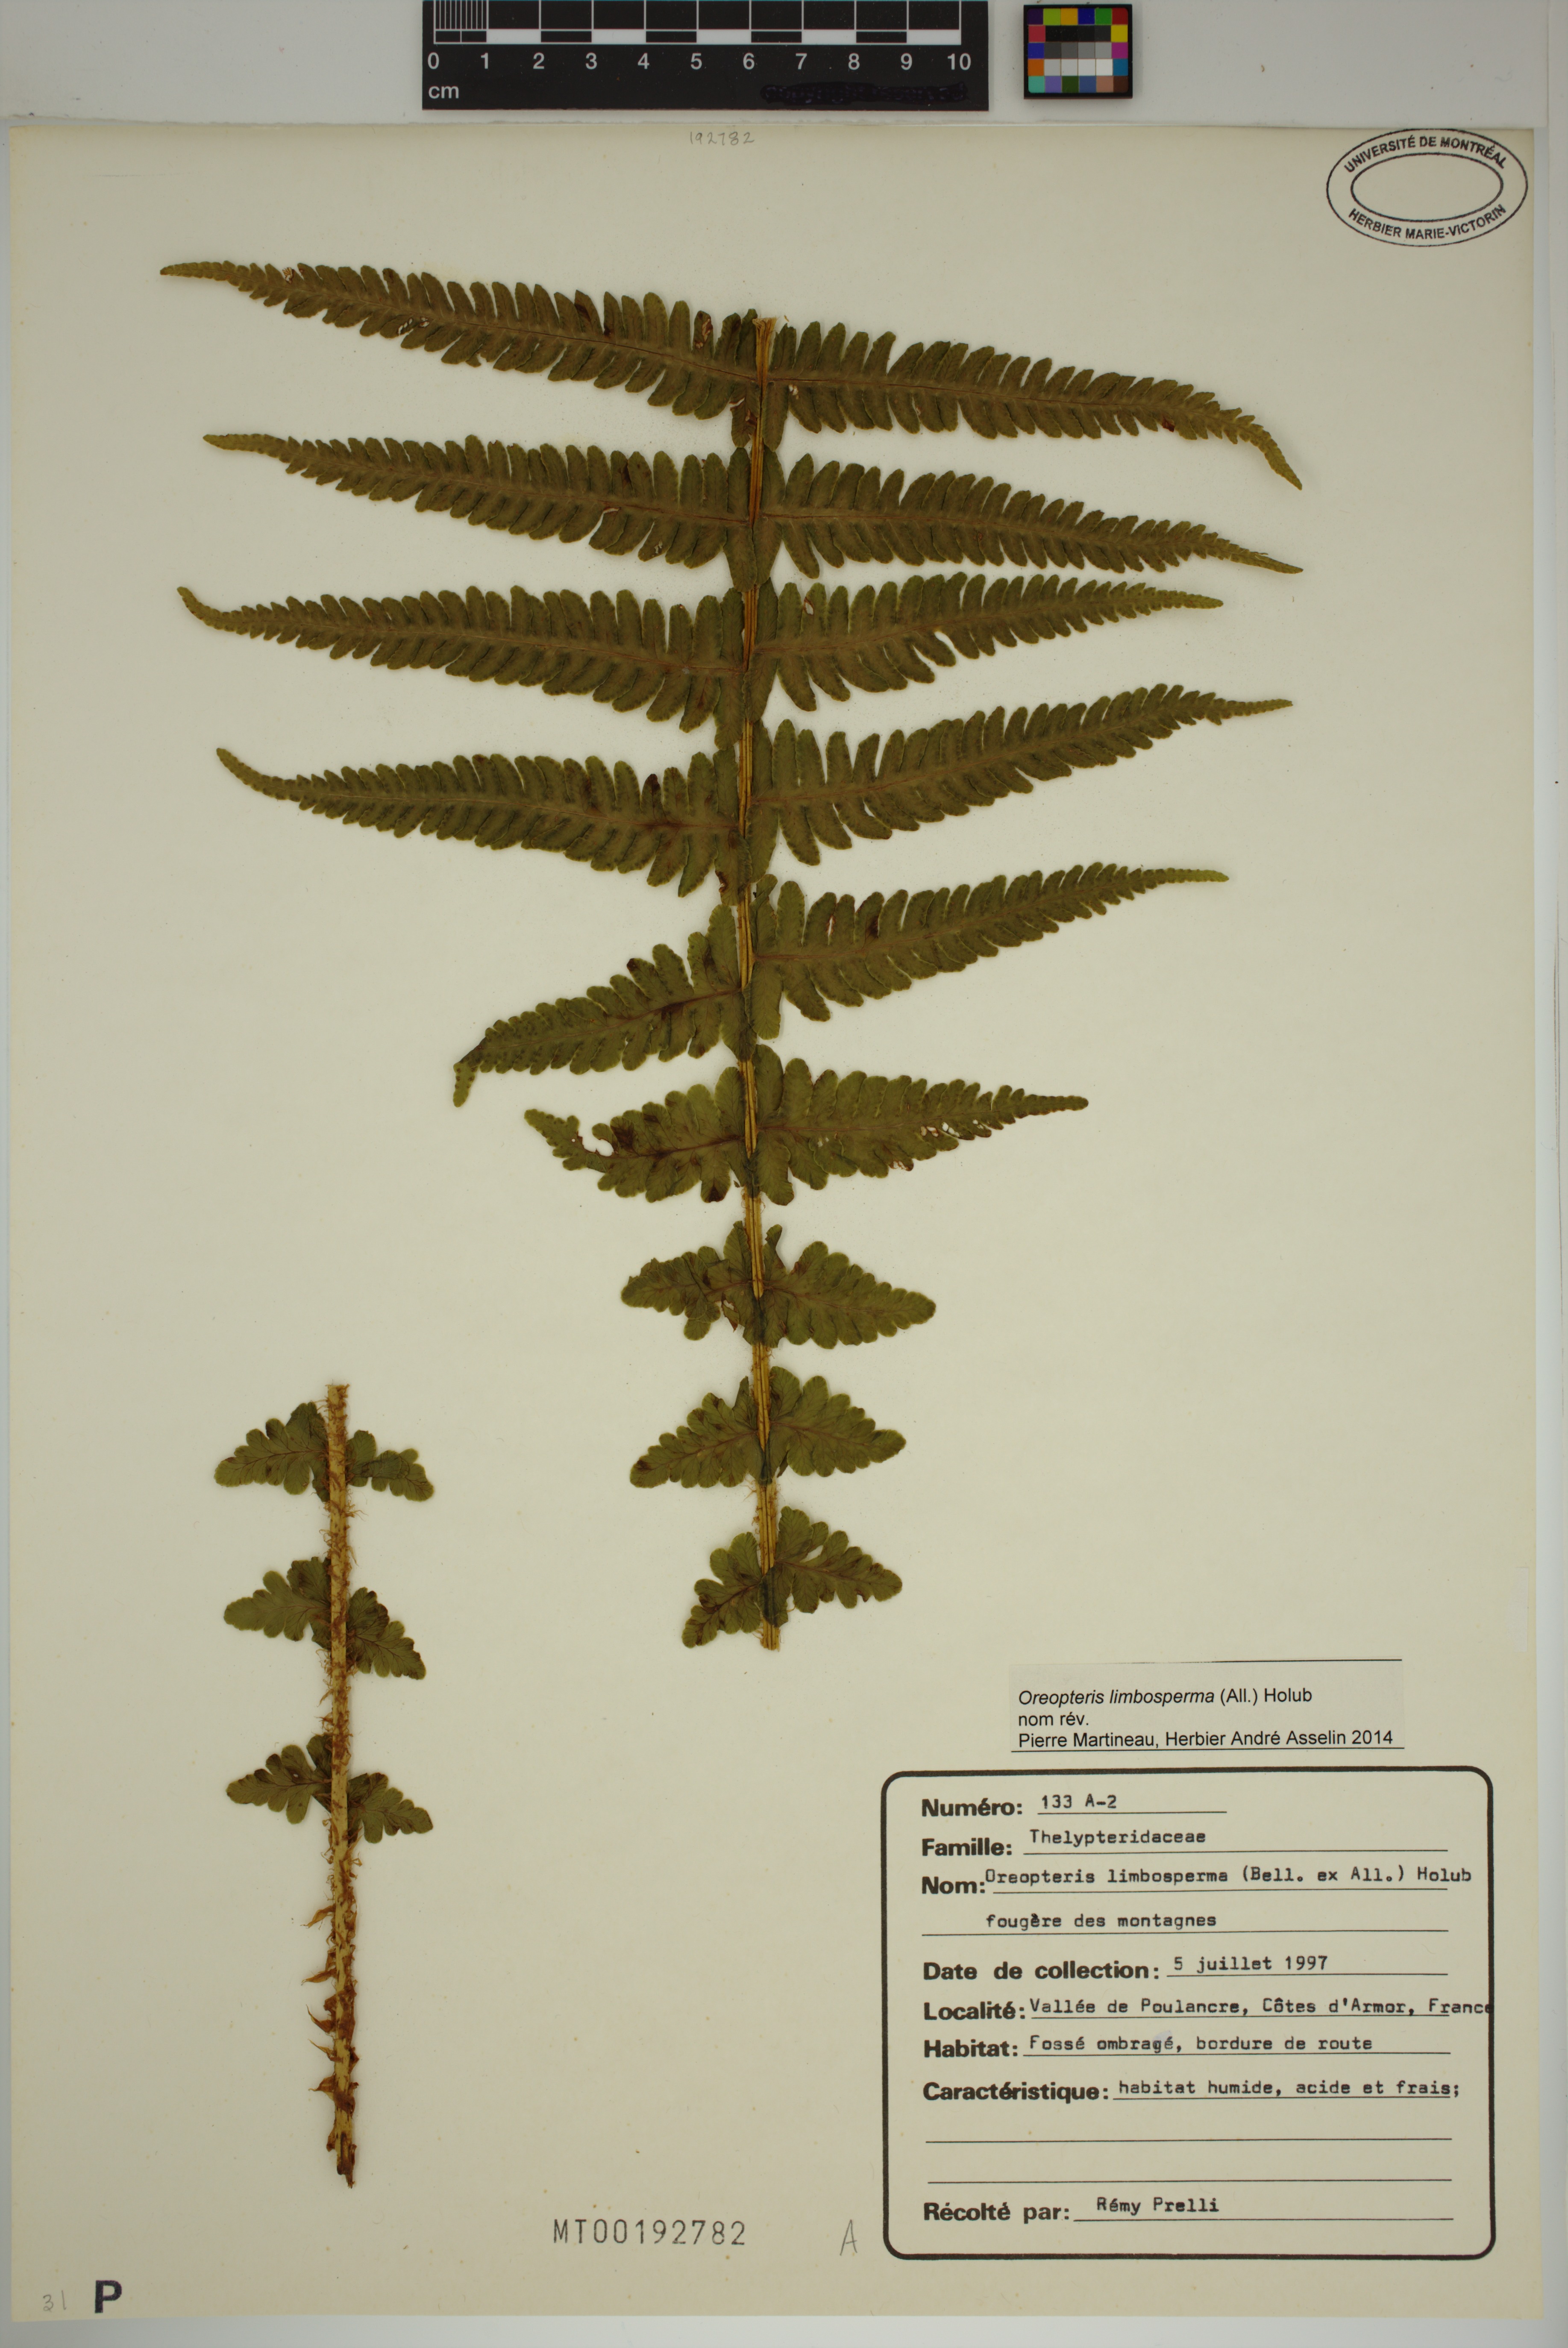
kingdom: Plantae
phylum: Tracheophyta
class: Polypodiopsida
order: Polypodiales
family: Thelypteridaceae
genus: Oreopteris
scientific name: Oreopteris limbosperma
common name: Lemon-scented fern
